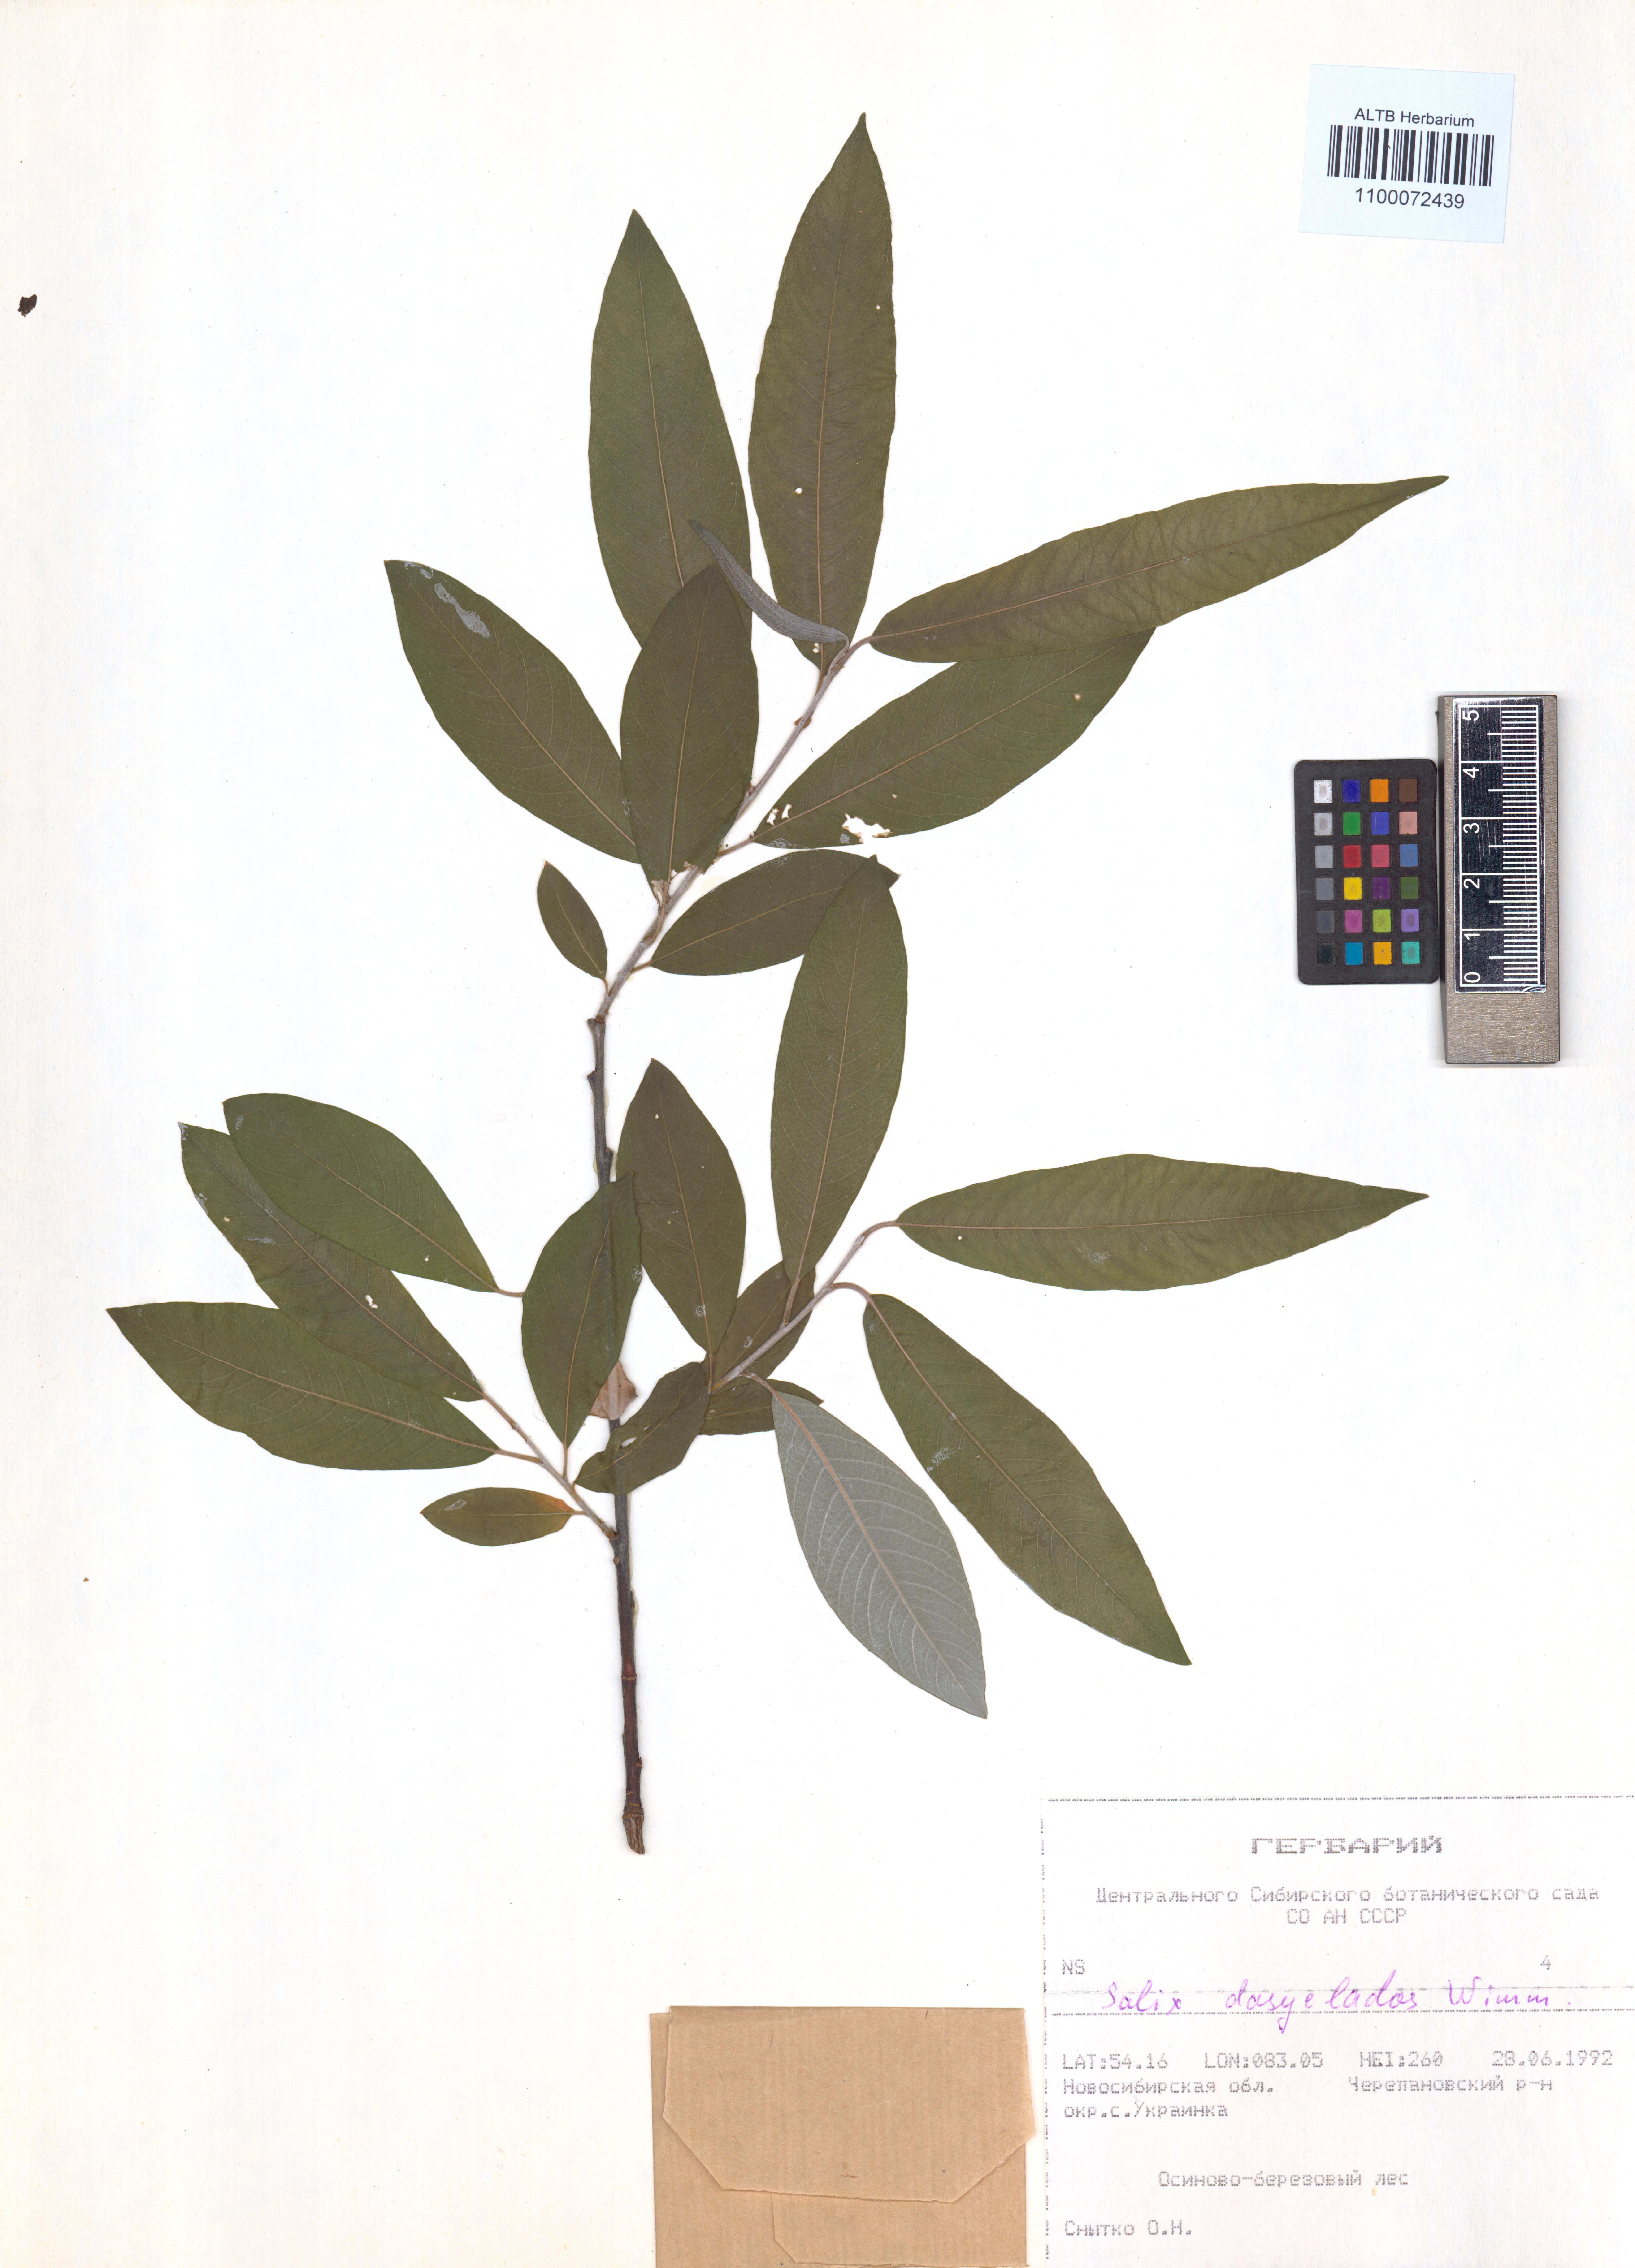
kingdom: Plantae
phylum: Tracheophyta
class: Magnoliopsida
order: Malpighiales
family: Salicaceae
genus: Salix
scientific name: Salix gmelinii
